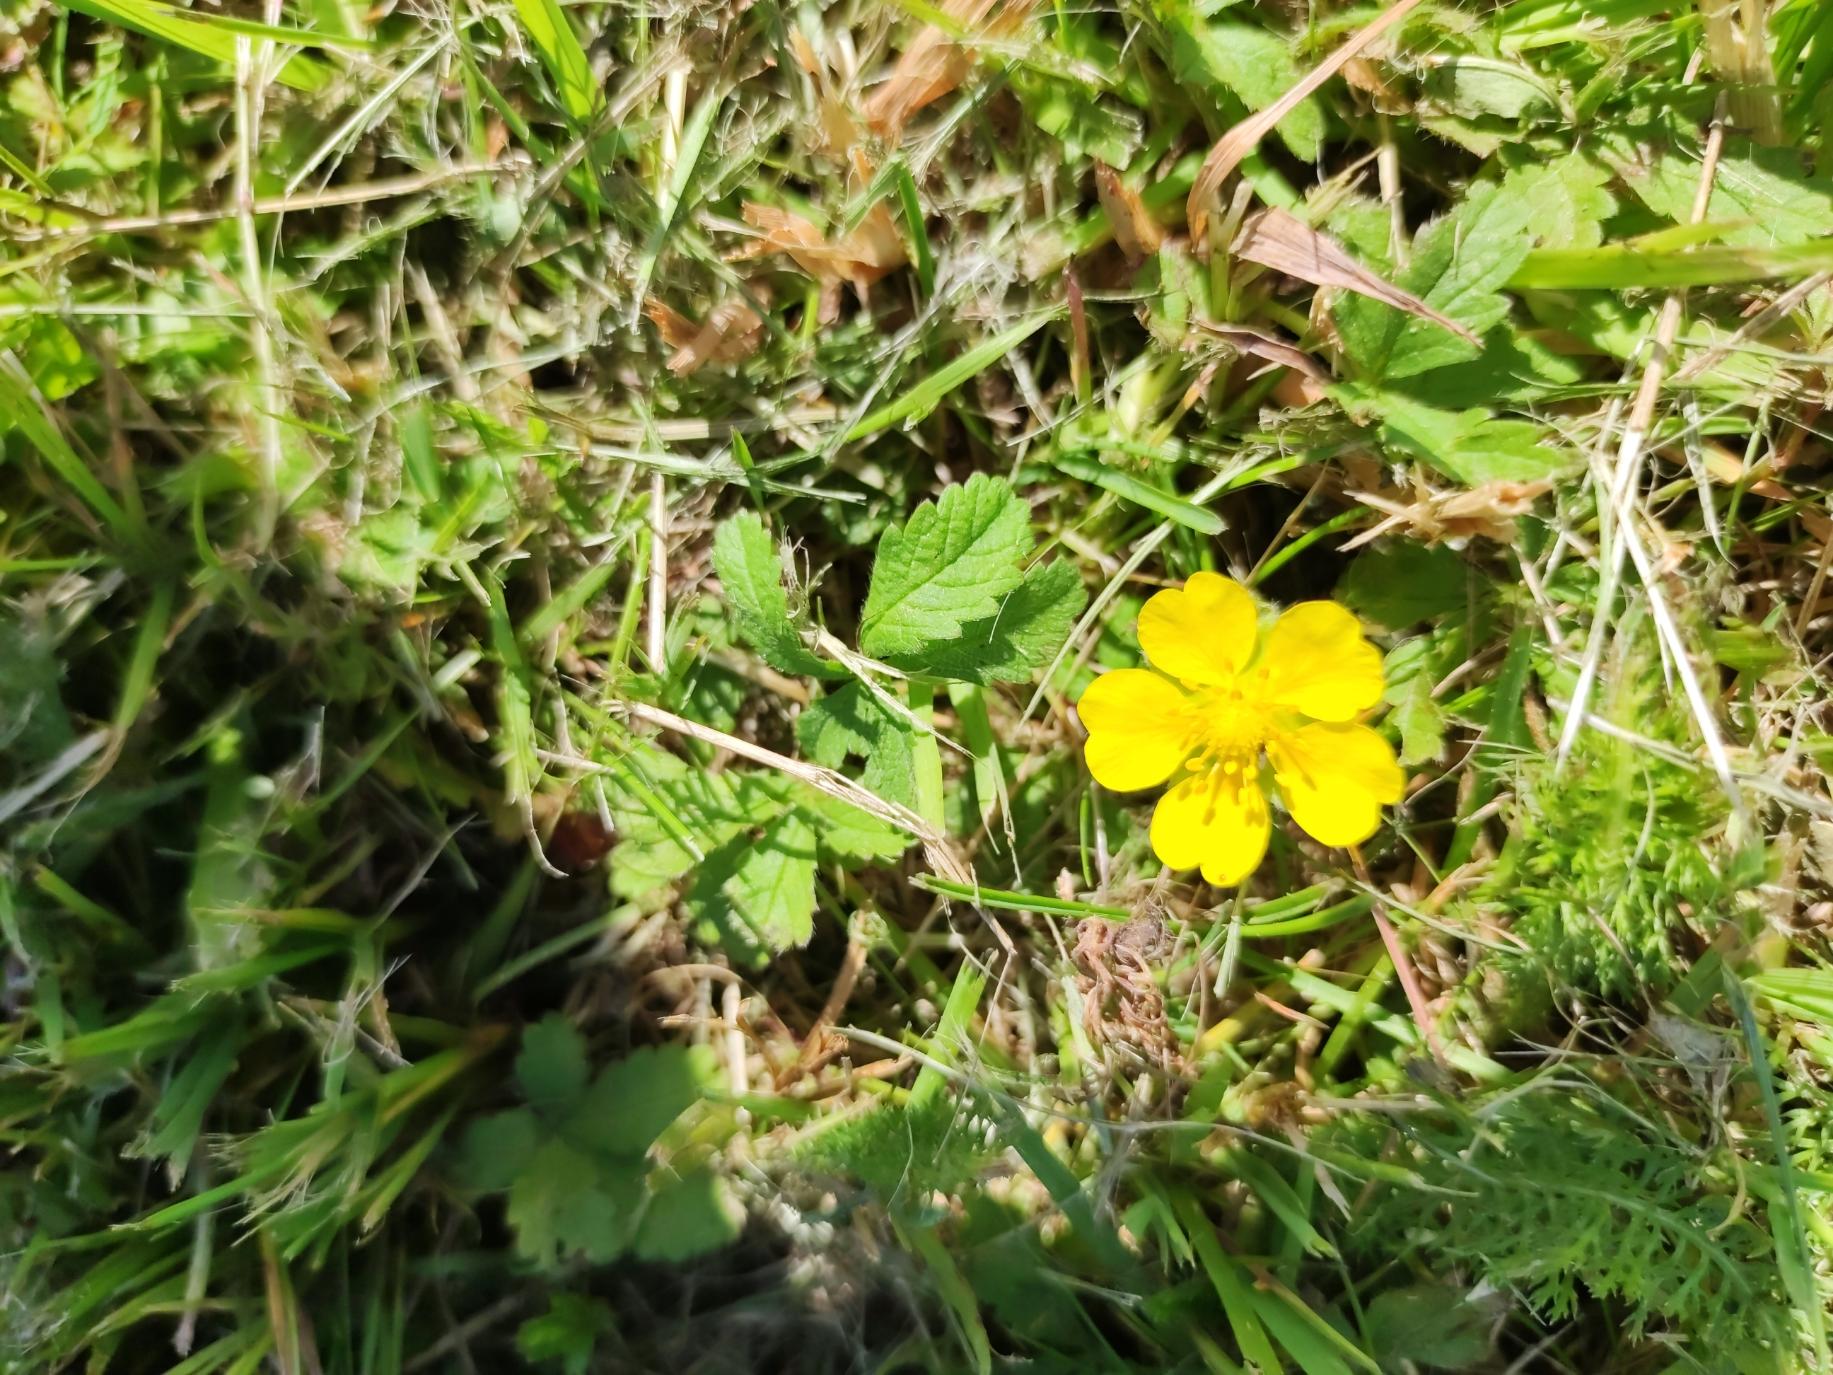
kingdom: Plantae
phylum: Tracheophyta
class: Magnoliopsida
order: Rosales
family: Rosaceae
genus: Potentilla
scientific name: Potentilla reptans
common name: Krybende potentil
